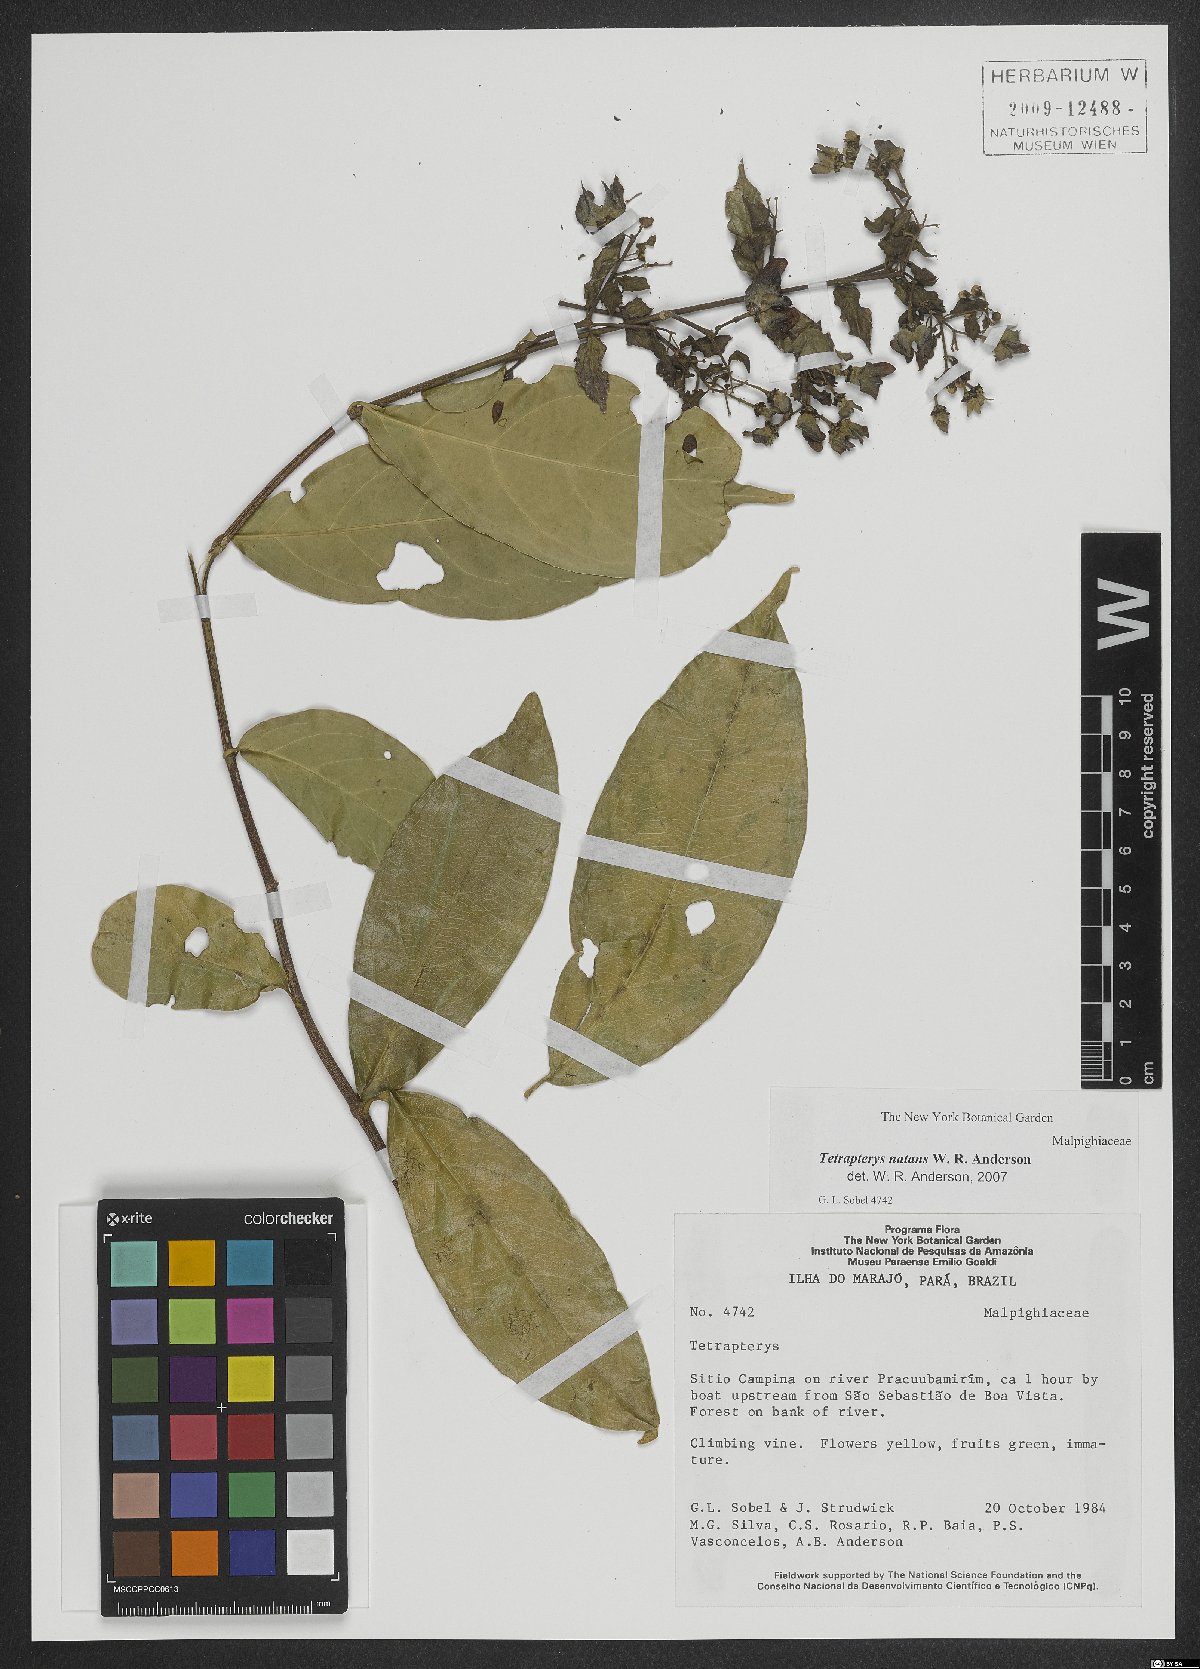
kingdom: Plantae
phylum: Tracheophyta
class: Magnoliopsida
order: Malpighiales
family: Malpighiaceae
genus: Tetrapterys
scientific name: Tetrapterys natans
